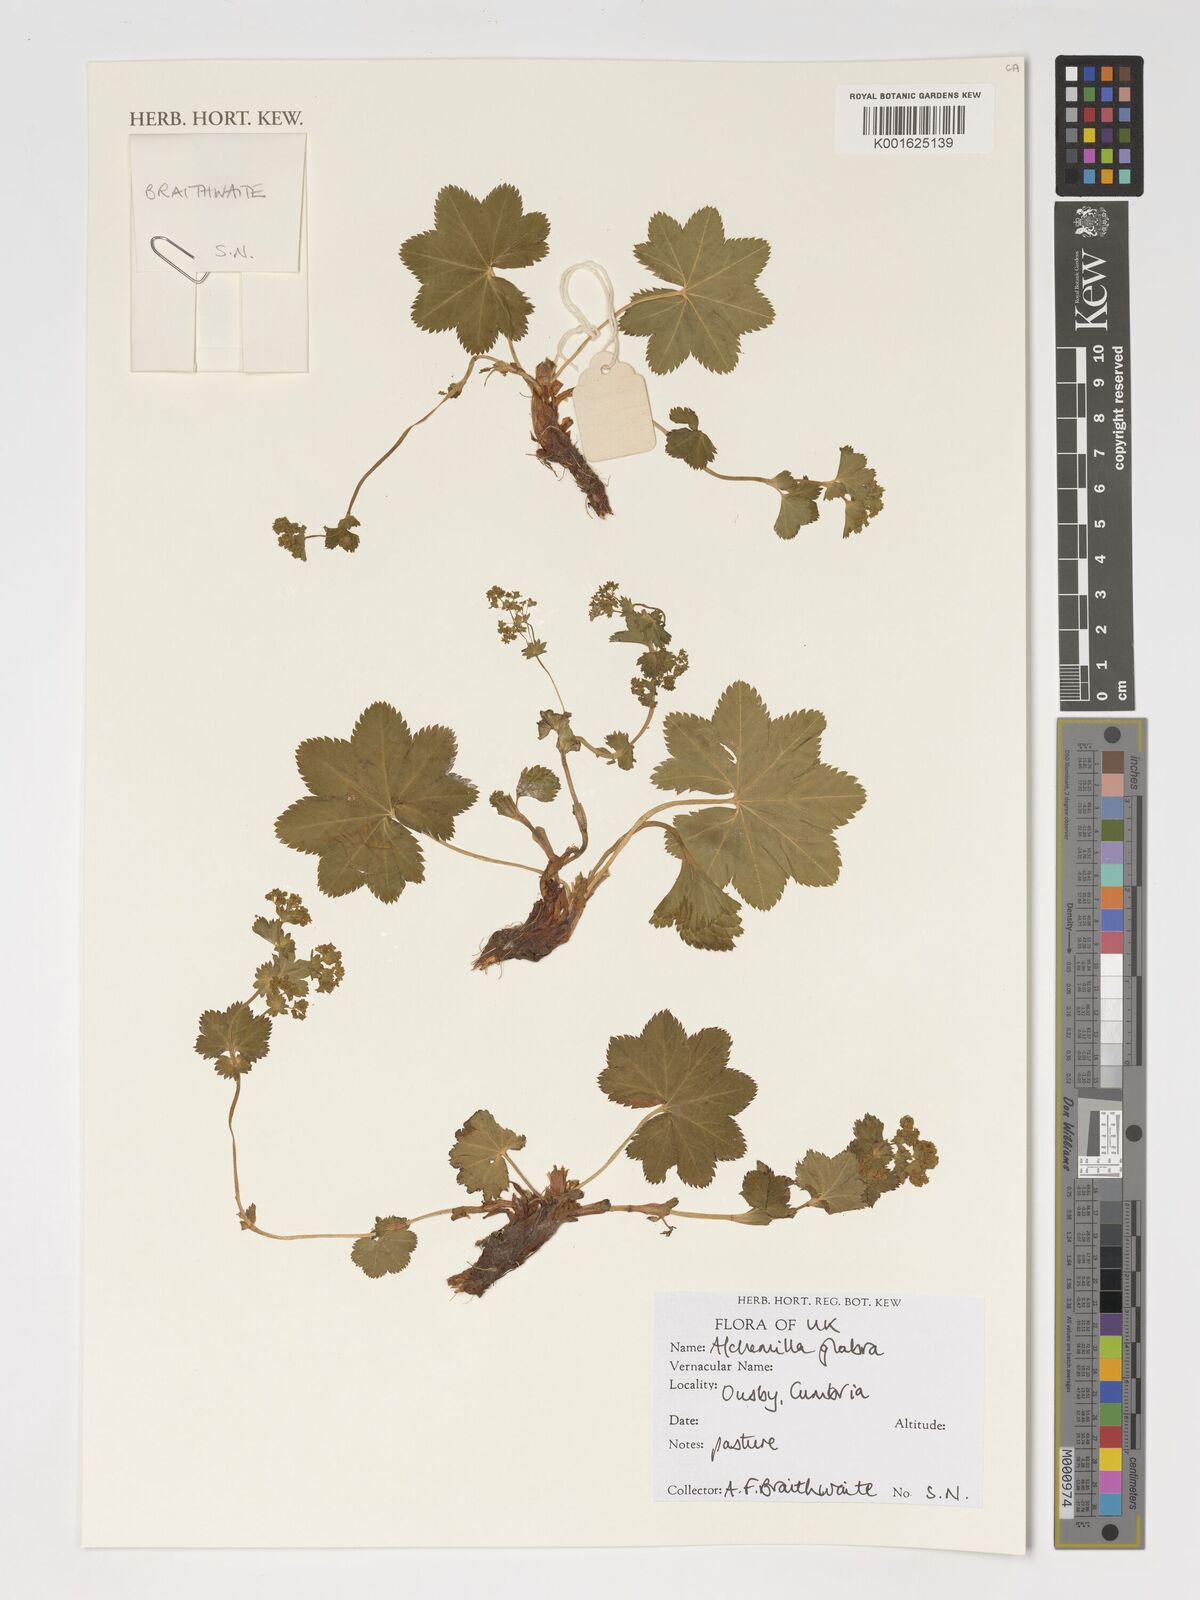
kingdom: Plantae
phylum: Tracheophyta
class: Magnoliopsida
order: Rosales
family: Rosaceae
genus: Alchemilla
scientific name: Alchemilla glabra
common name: Smooth lady's-mantle
